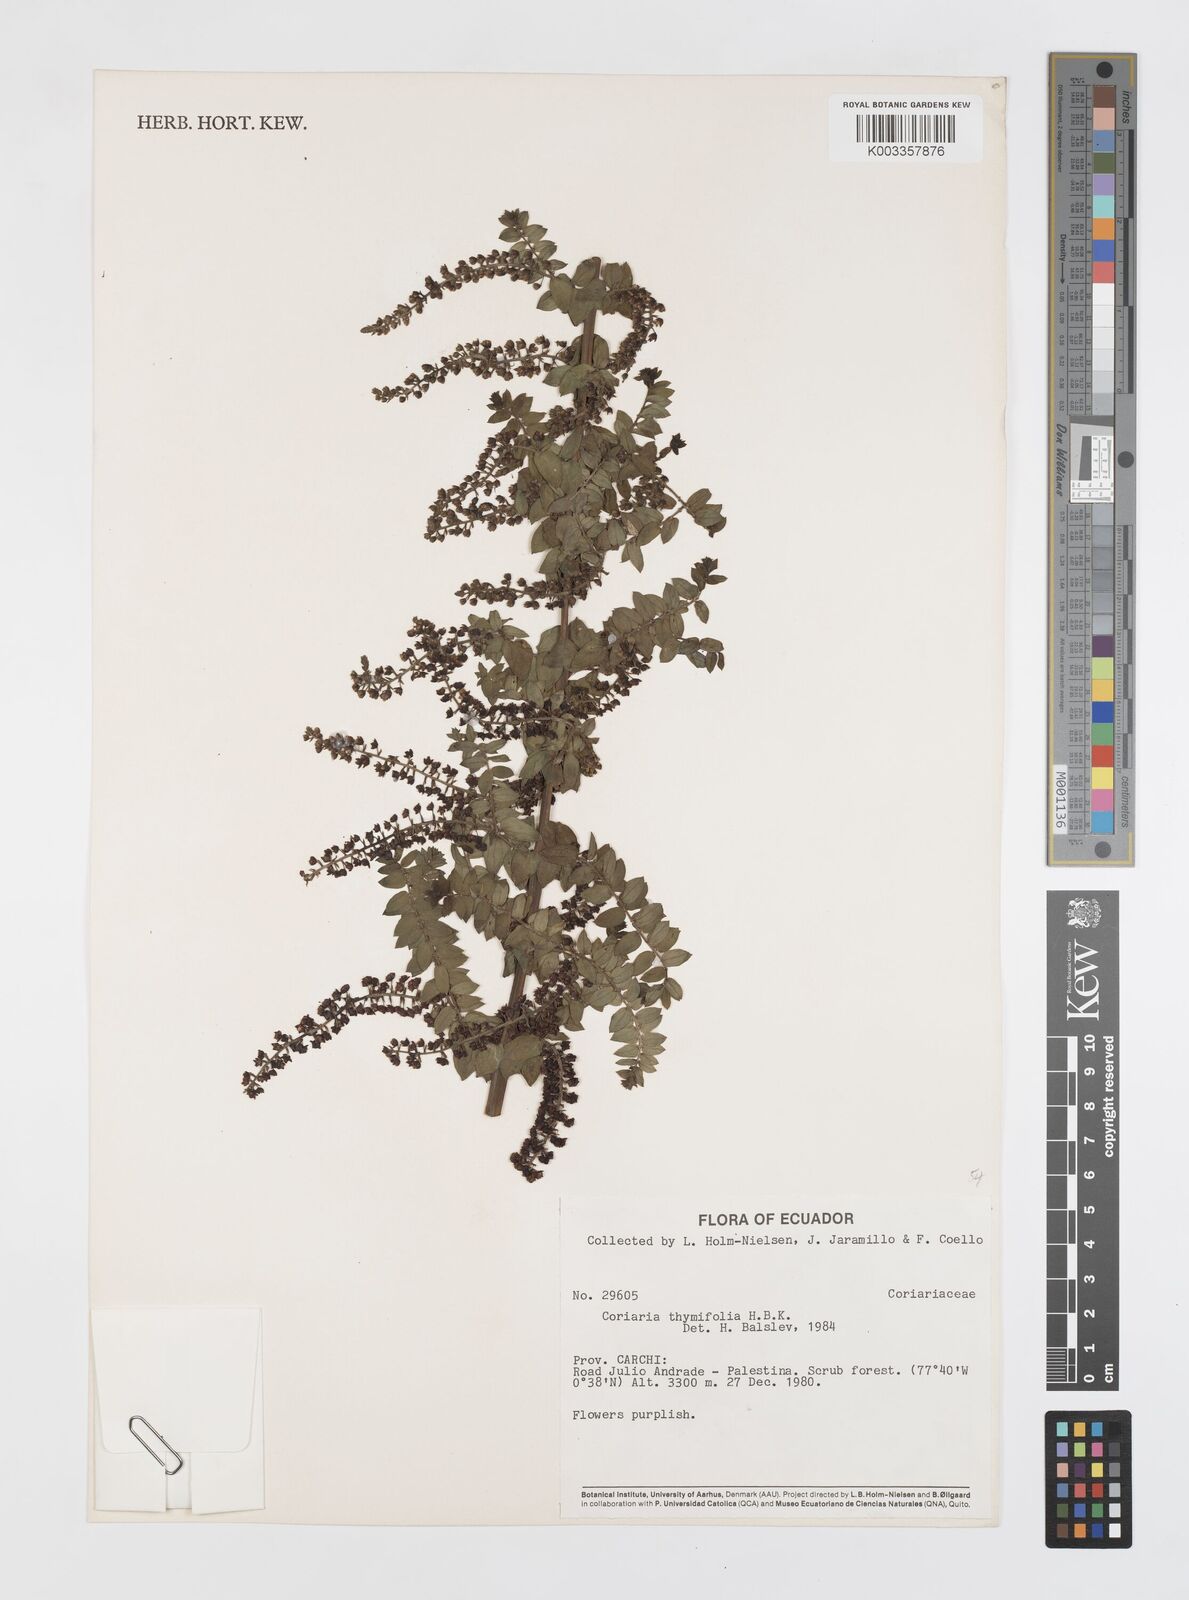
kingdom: Plantae
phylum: Tracheophyta
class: Magnoliopsida
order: Cucurbitales
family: Coriariaceae
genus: Coriaria
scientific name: Coriaria microphylla
